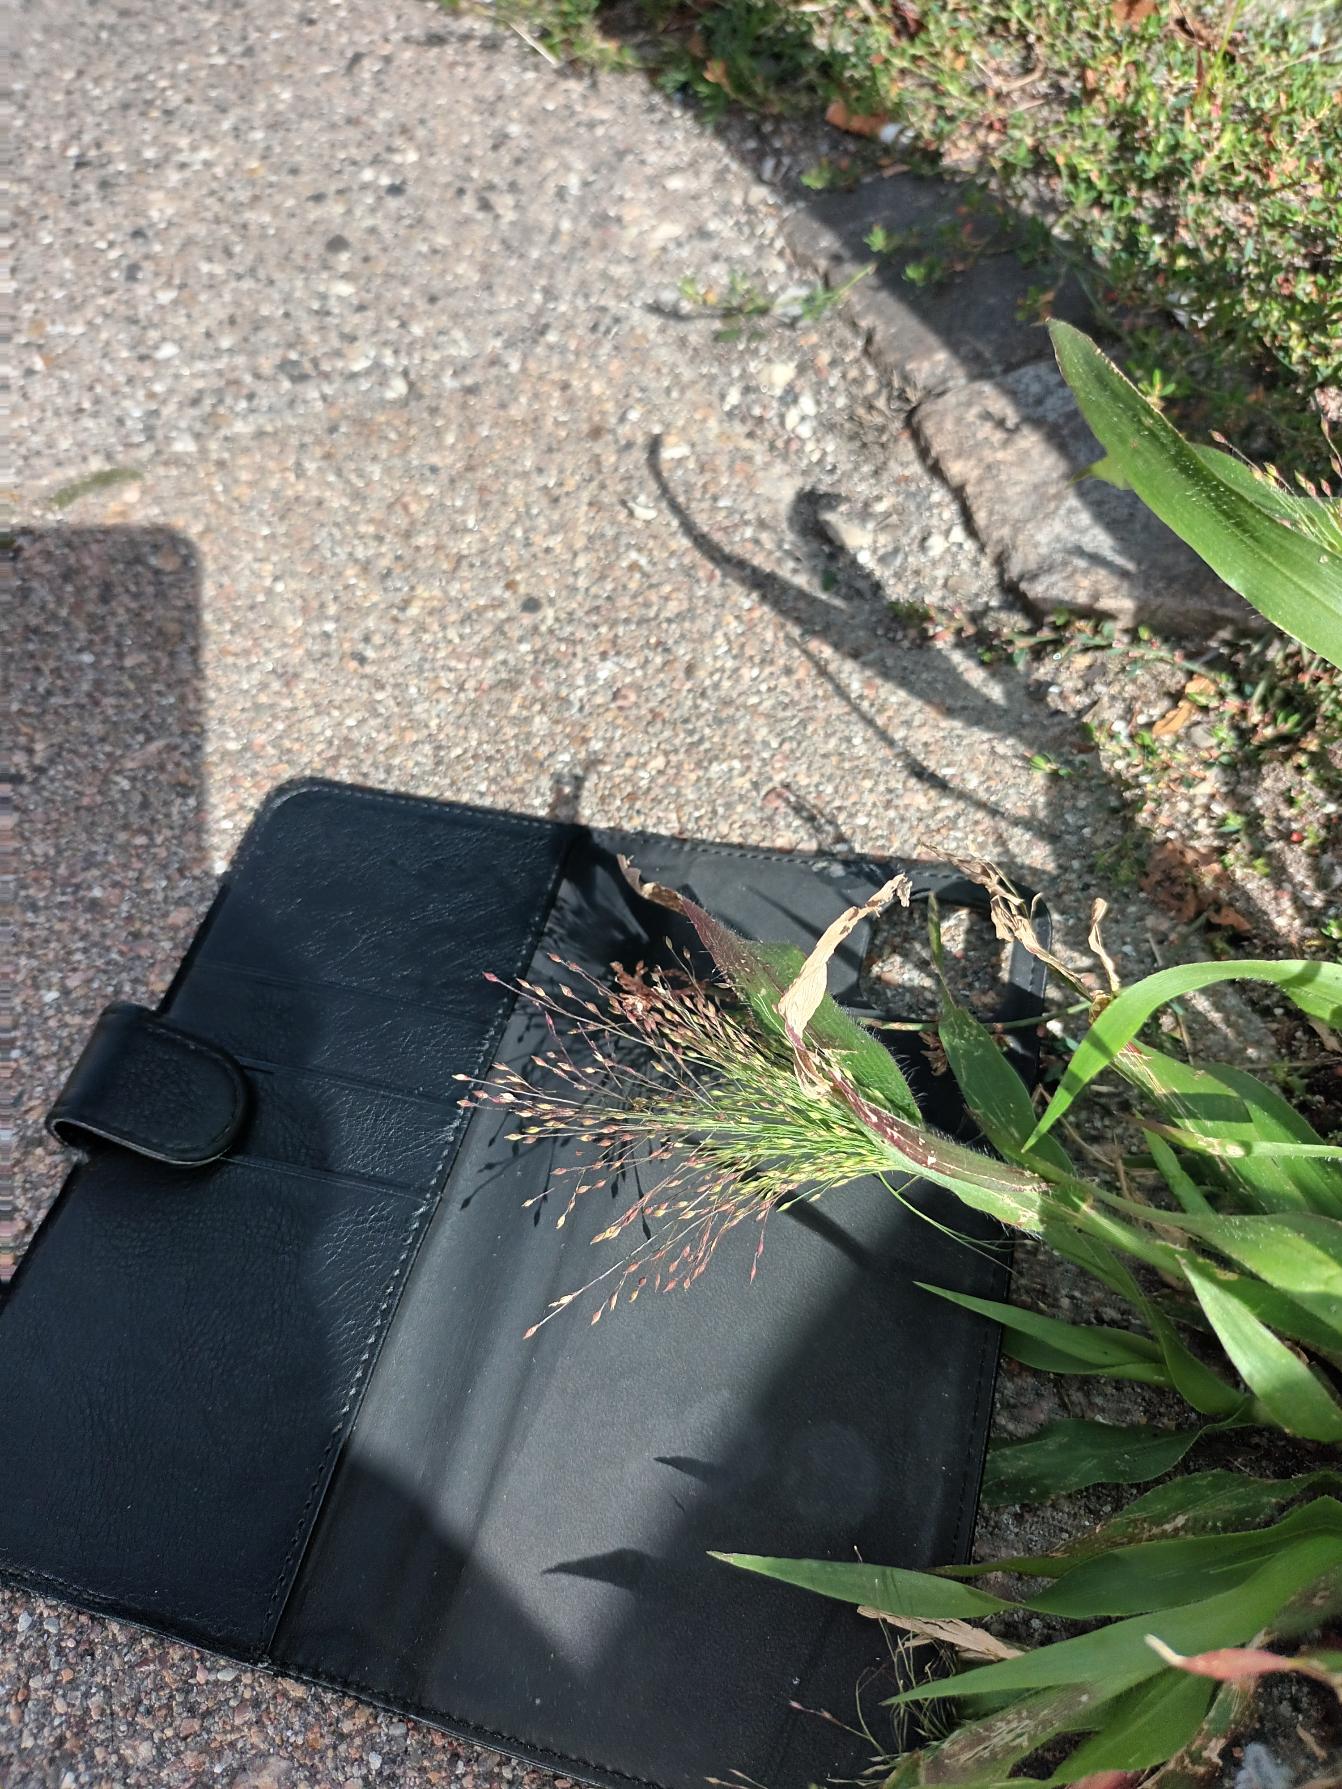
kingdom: Plantae
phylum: Tracheophyta
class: Liliopsida
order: Poales
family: Poaceae
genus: Panicum
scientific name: Panicum capillare
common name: Hårfin hirse
